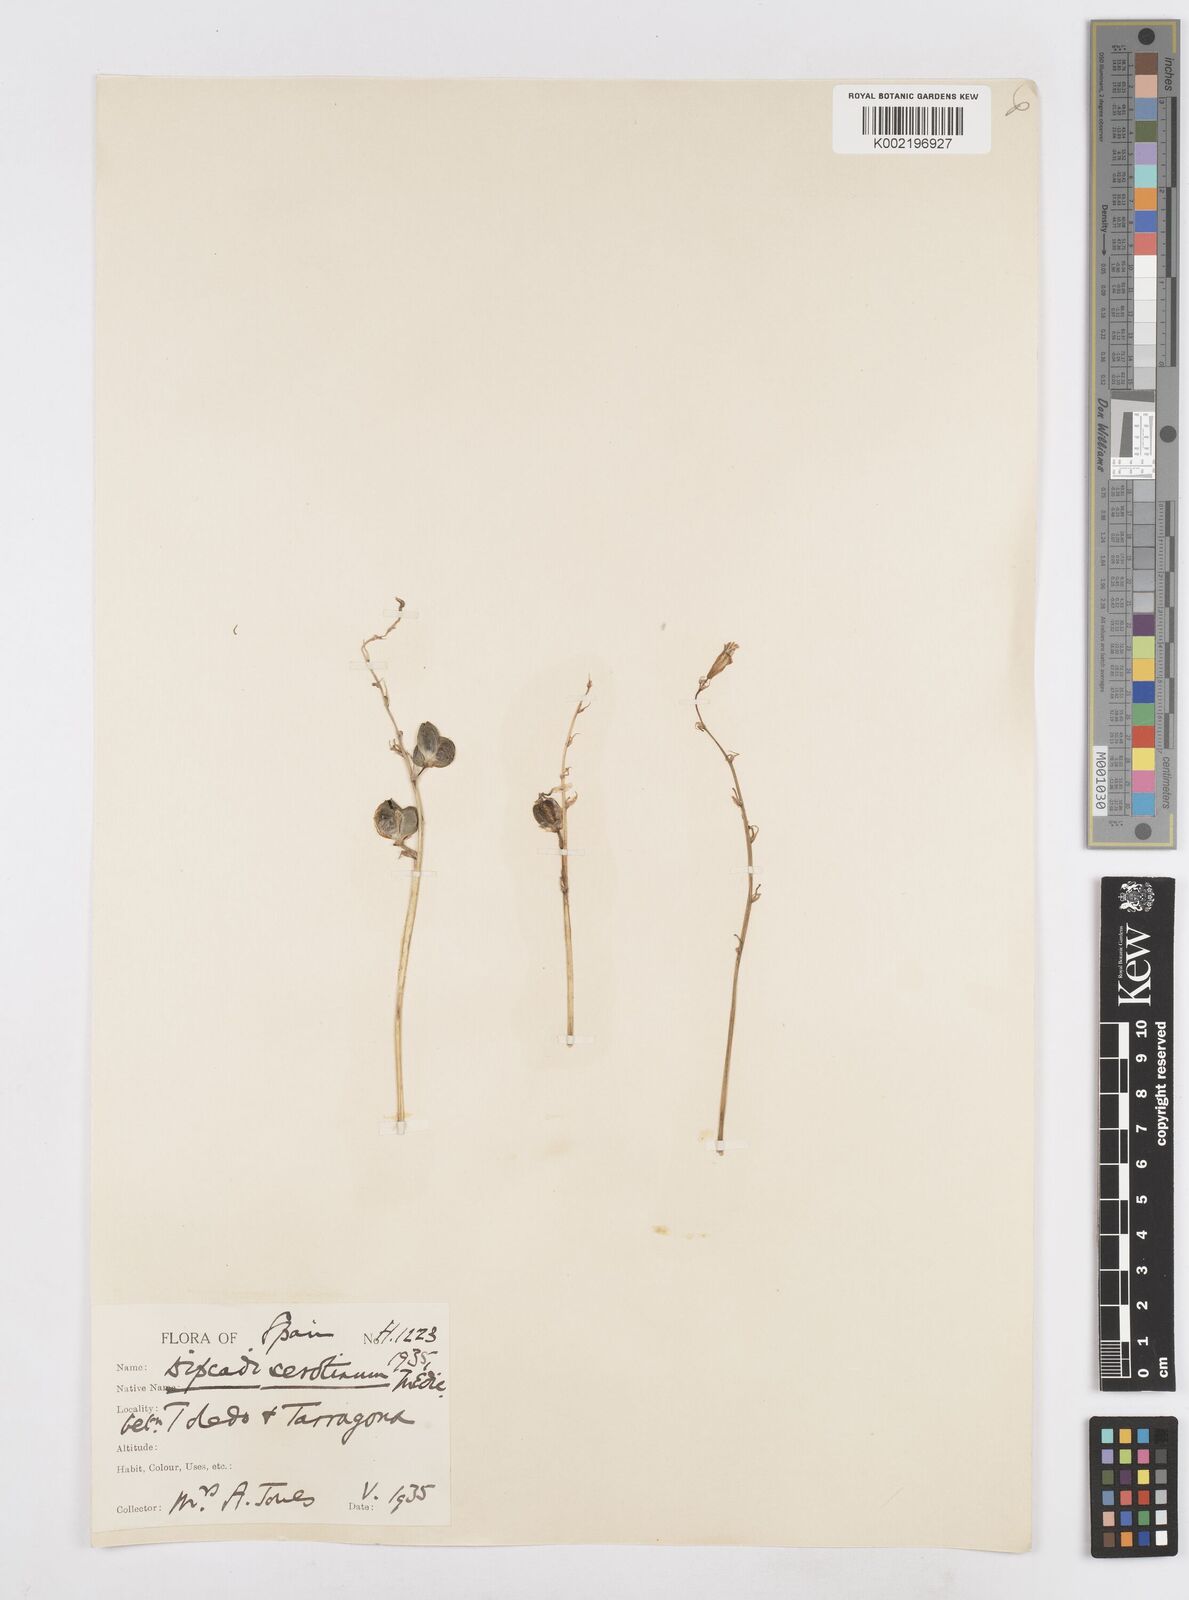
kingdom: Plantae
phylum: Tracheophyta
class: Liliopsida
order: Asparagales
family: Asparagaceae
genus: Dipcadi
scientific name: Dipcadi serotinum
